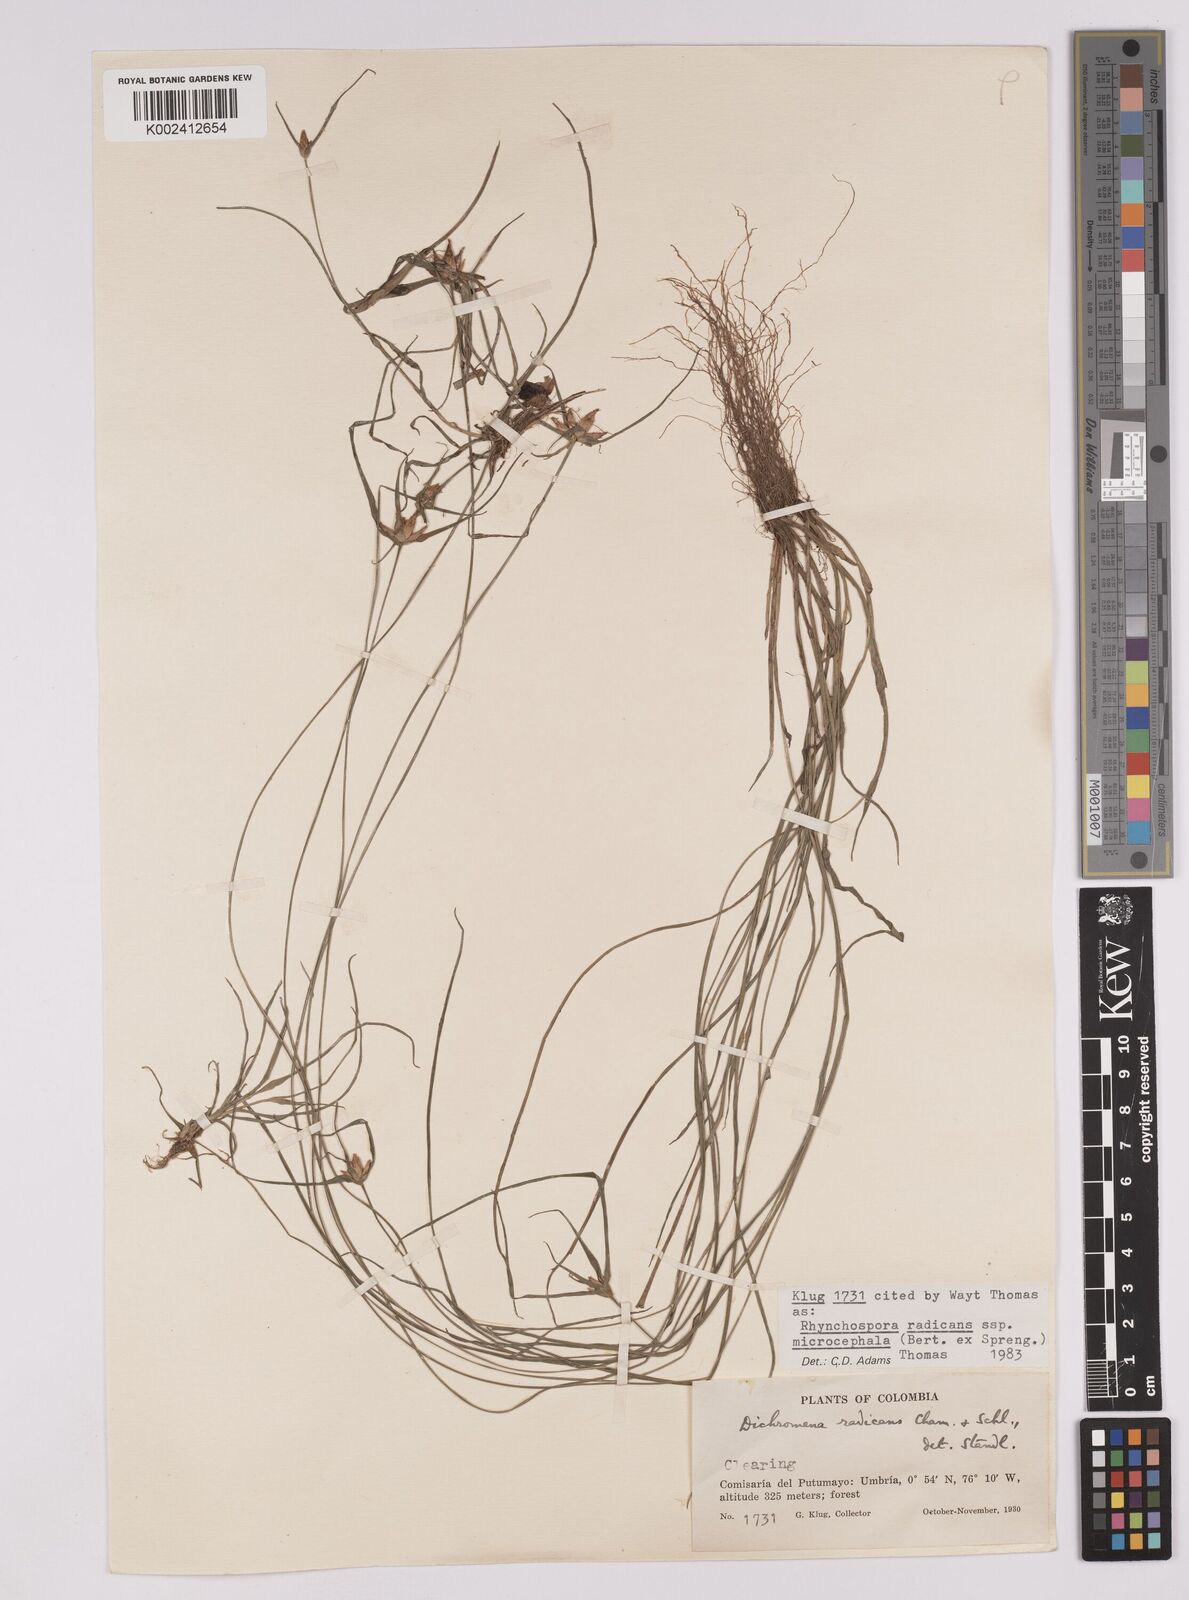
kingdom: Plantae
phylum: Tracheophyta
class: Liliopsida
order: Poales
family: Cyperaceae
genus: Rhynchospora
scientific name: Rhynchospora radicans
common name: Tropical whitetop
